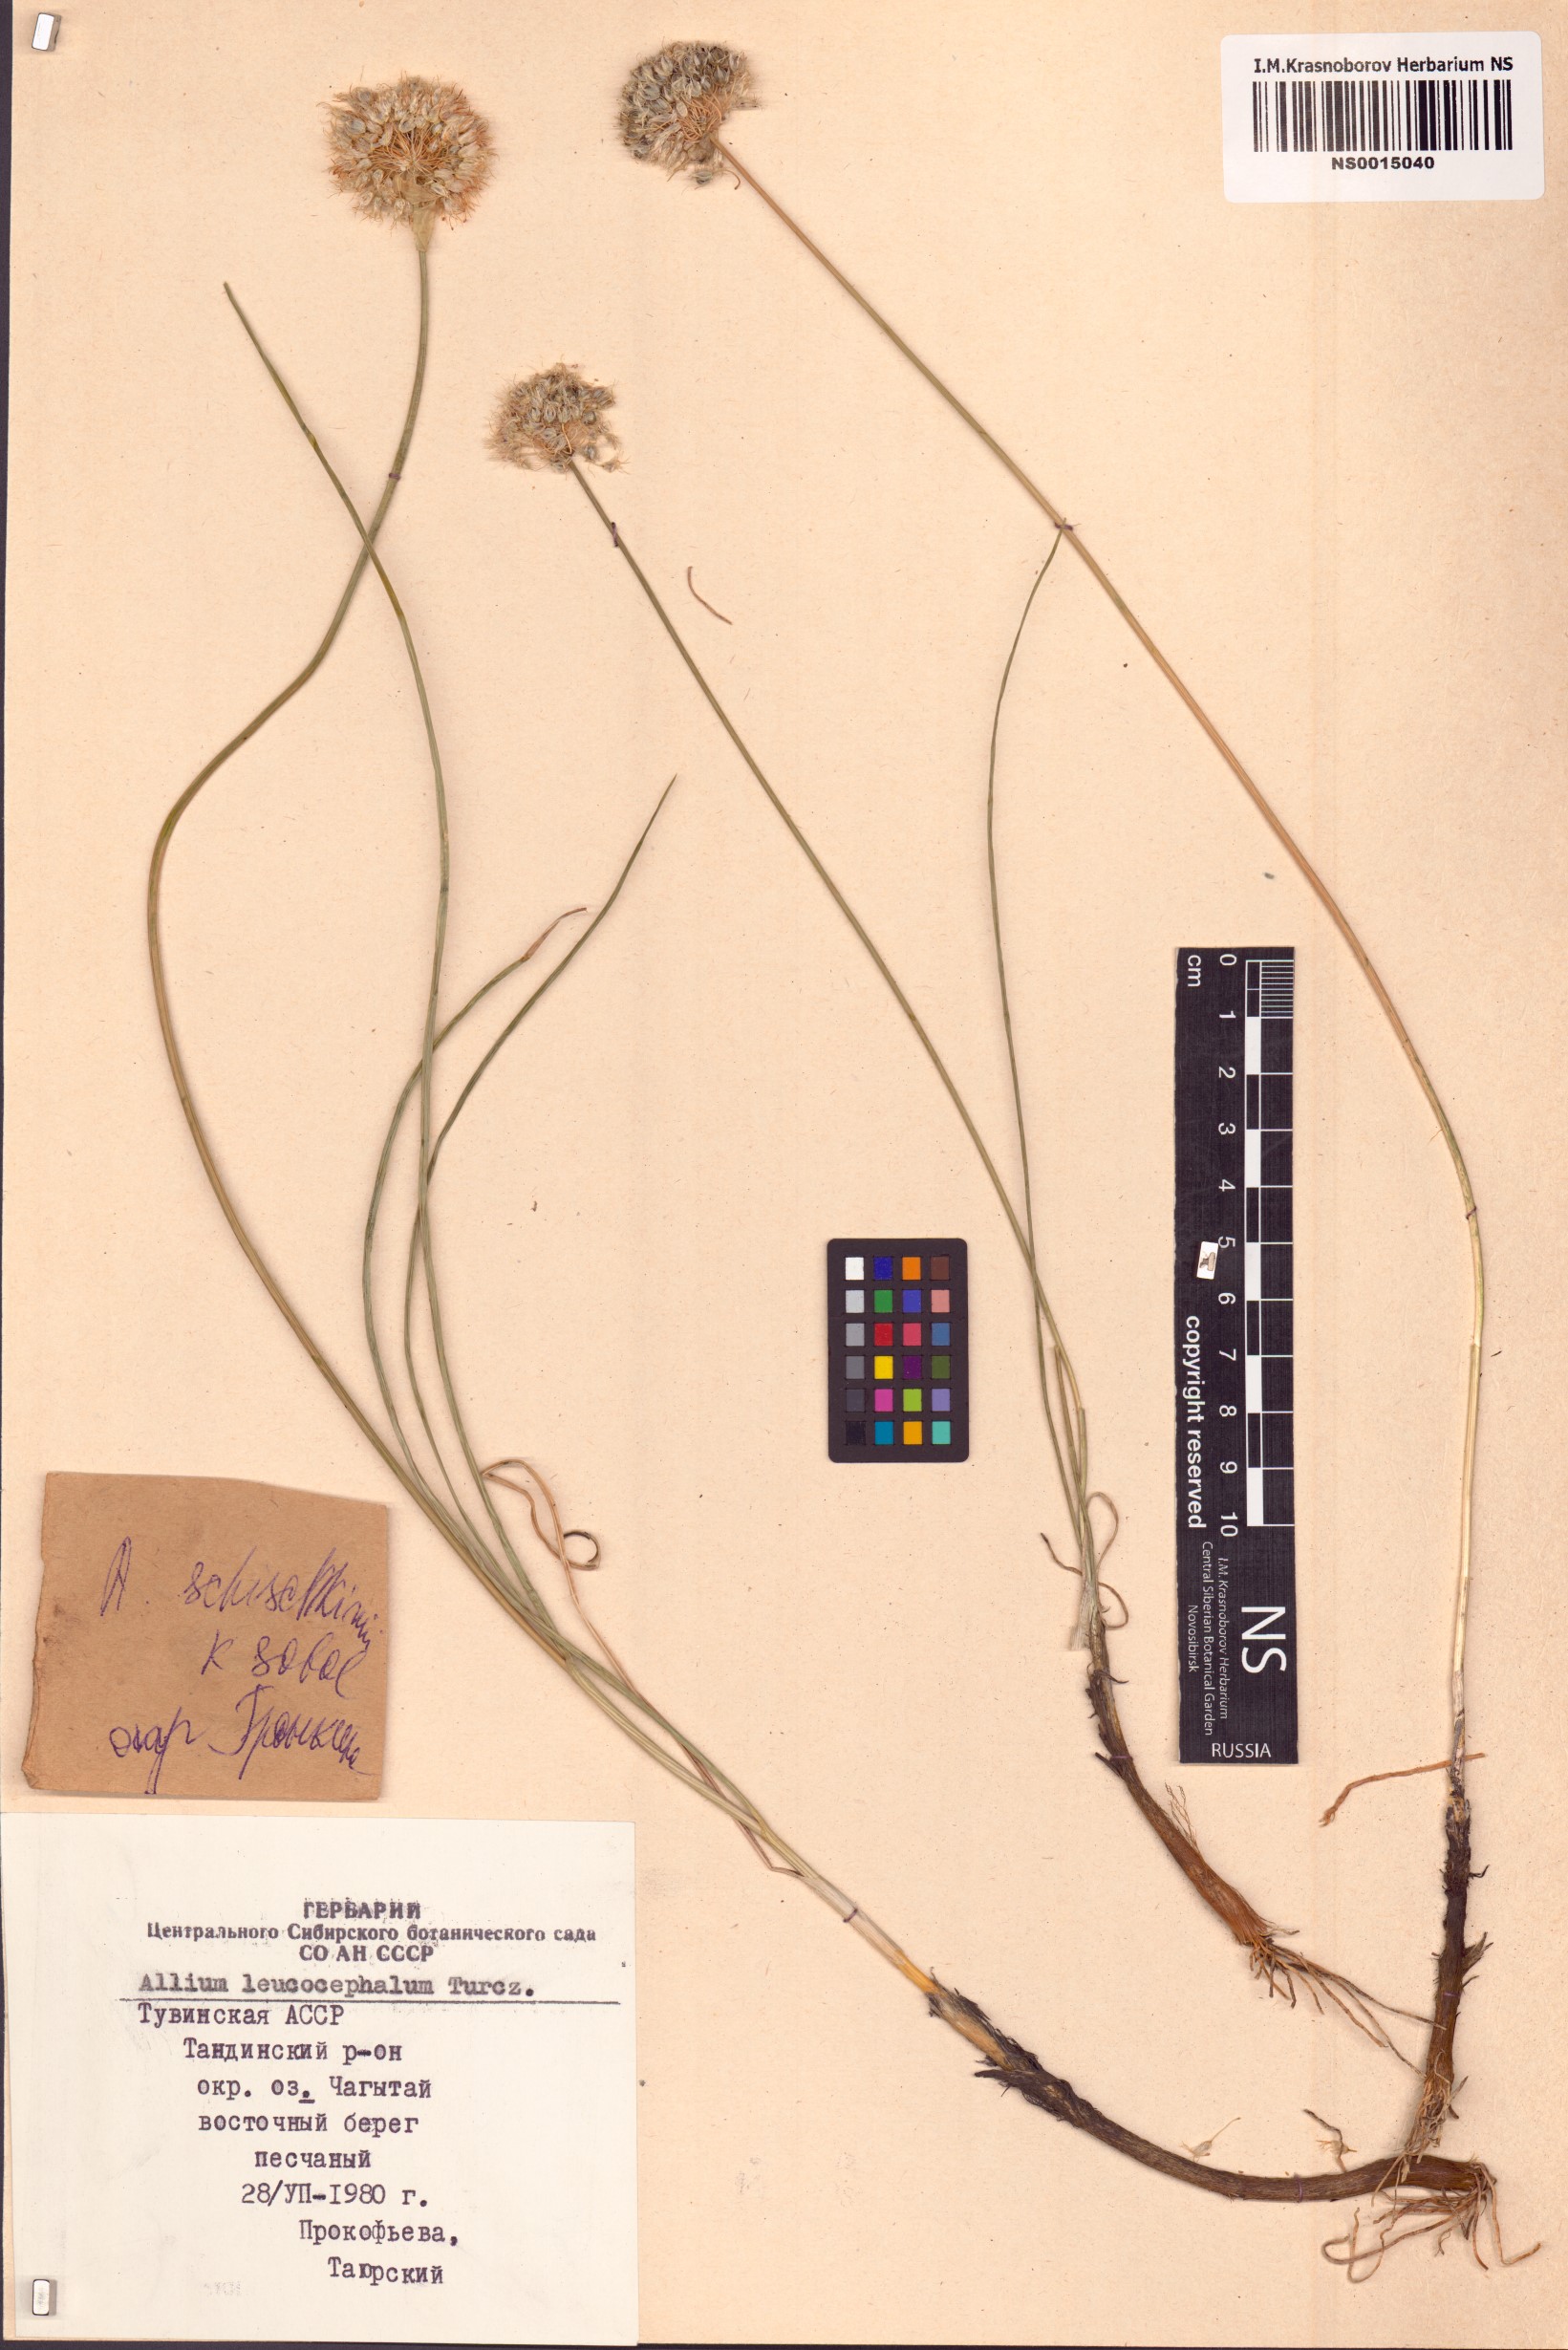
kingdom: Plantae
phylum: Tracheophyta
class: Liliopsida
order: Asparagales
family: Amaryllidaceae
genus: Allium
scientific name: Allium schischkinii
